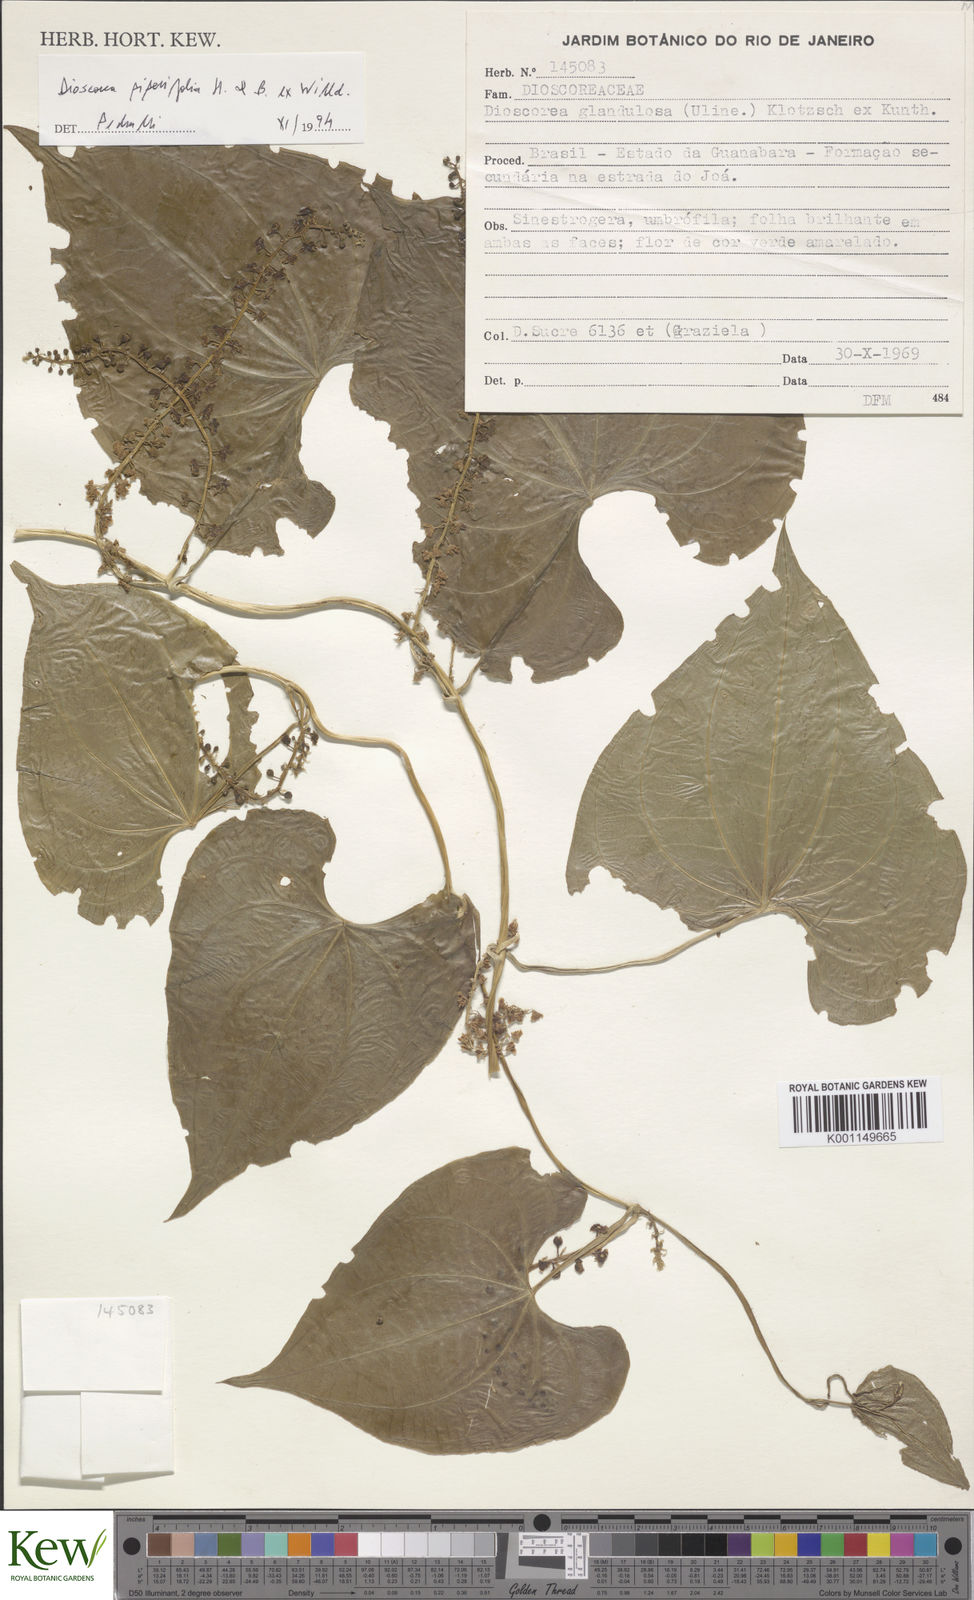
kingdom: Plantae
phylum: Tracheophyta
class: Liliopsida
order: Dioscoreales
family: Dioscoreaceae
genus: Dioscorea
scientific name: Dioscorea glandulosa
